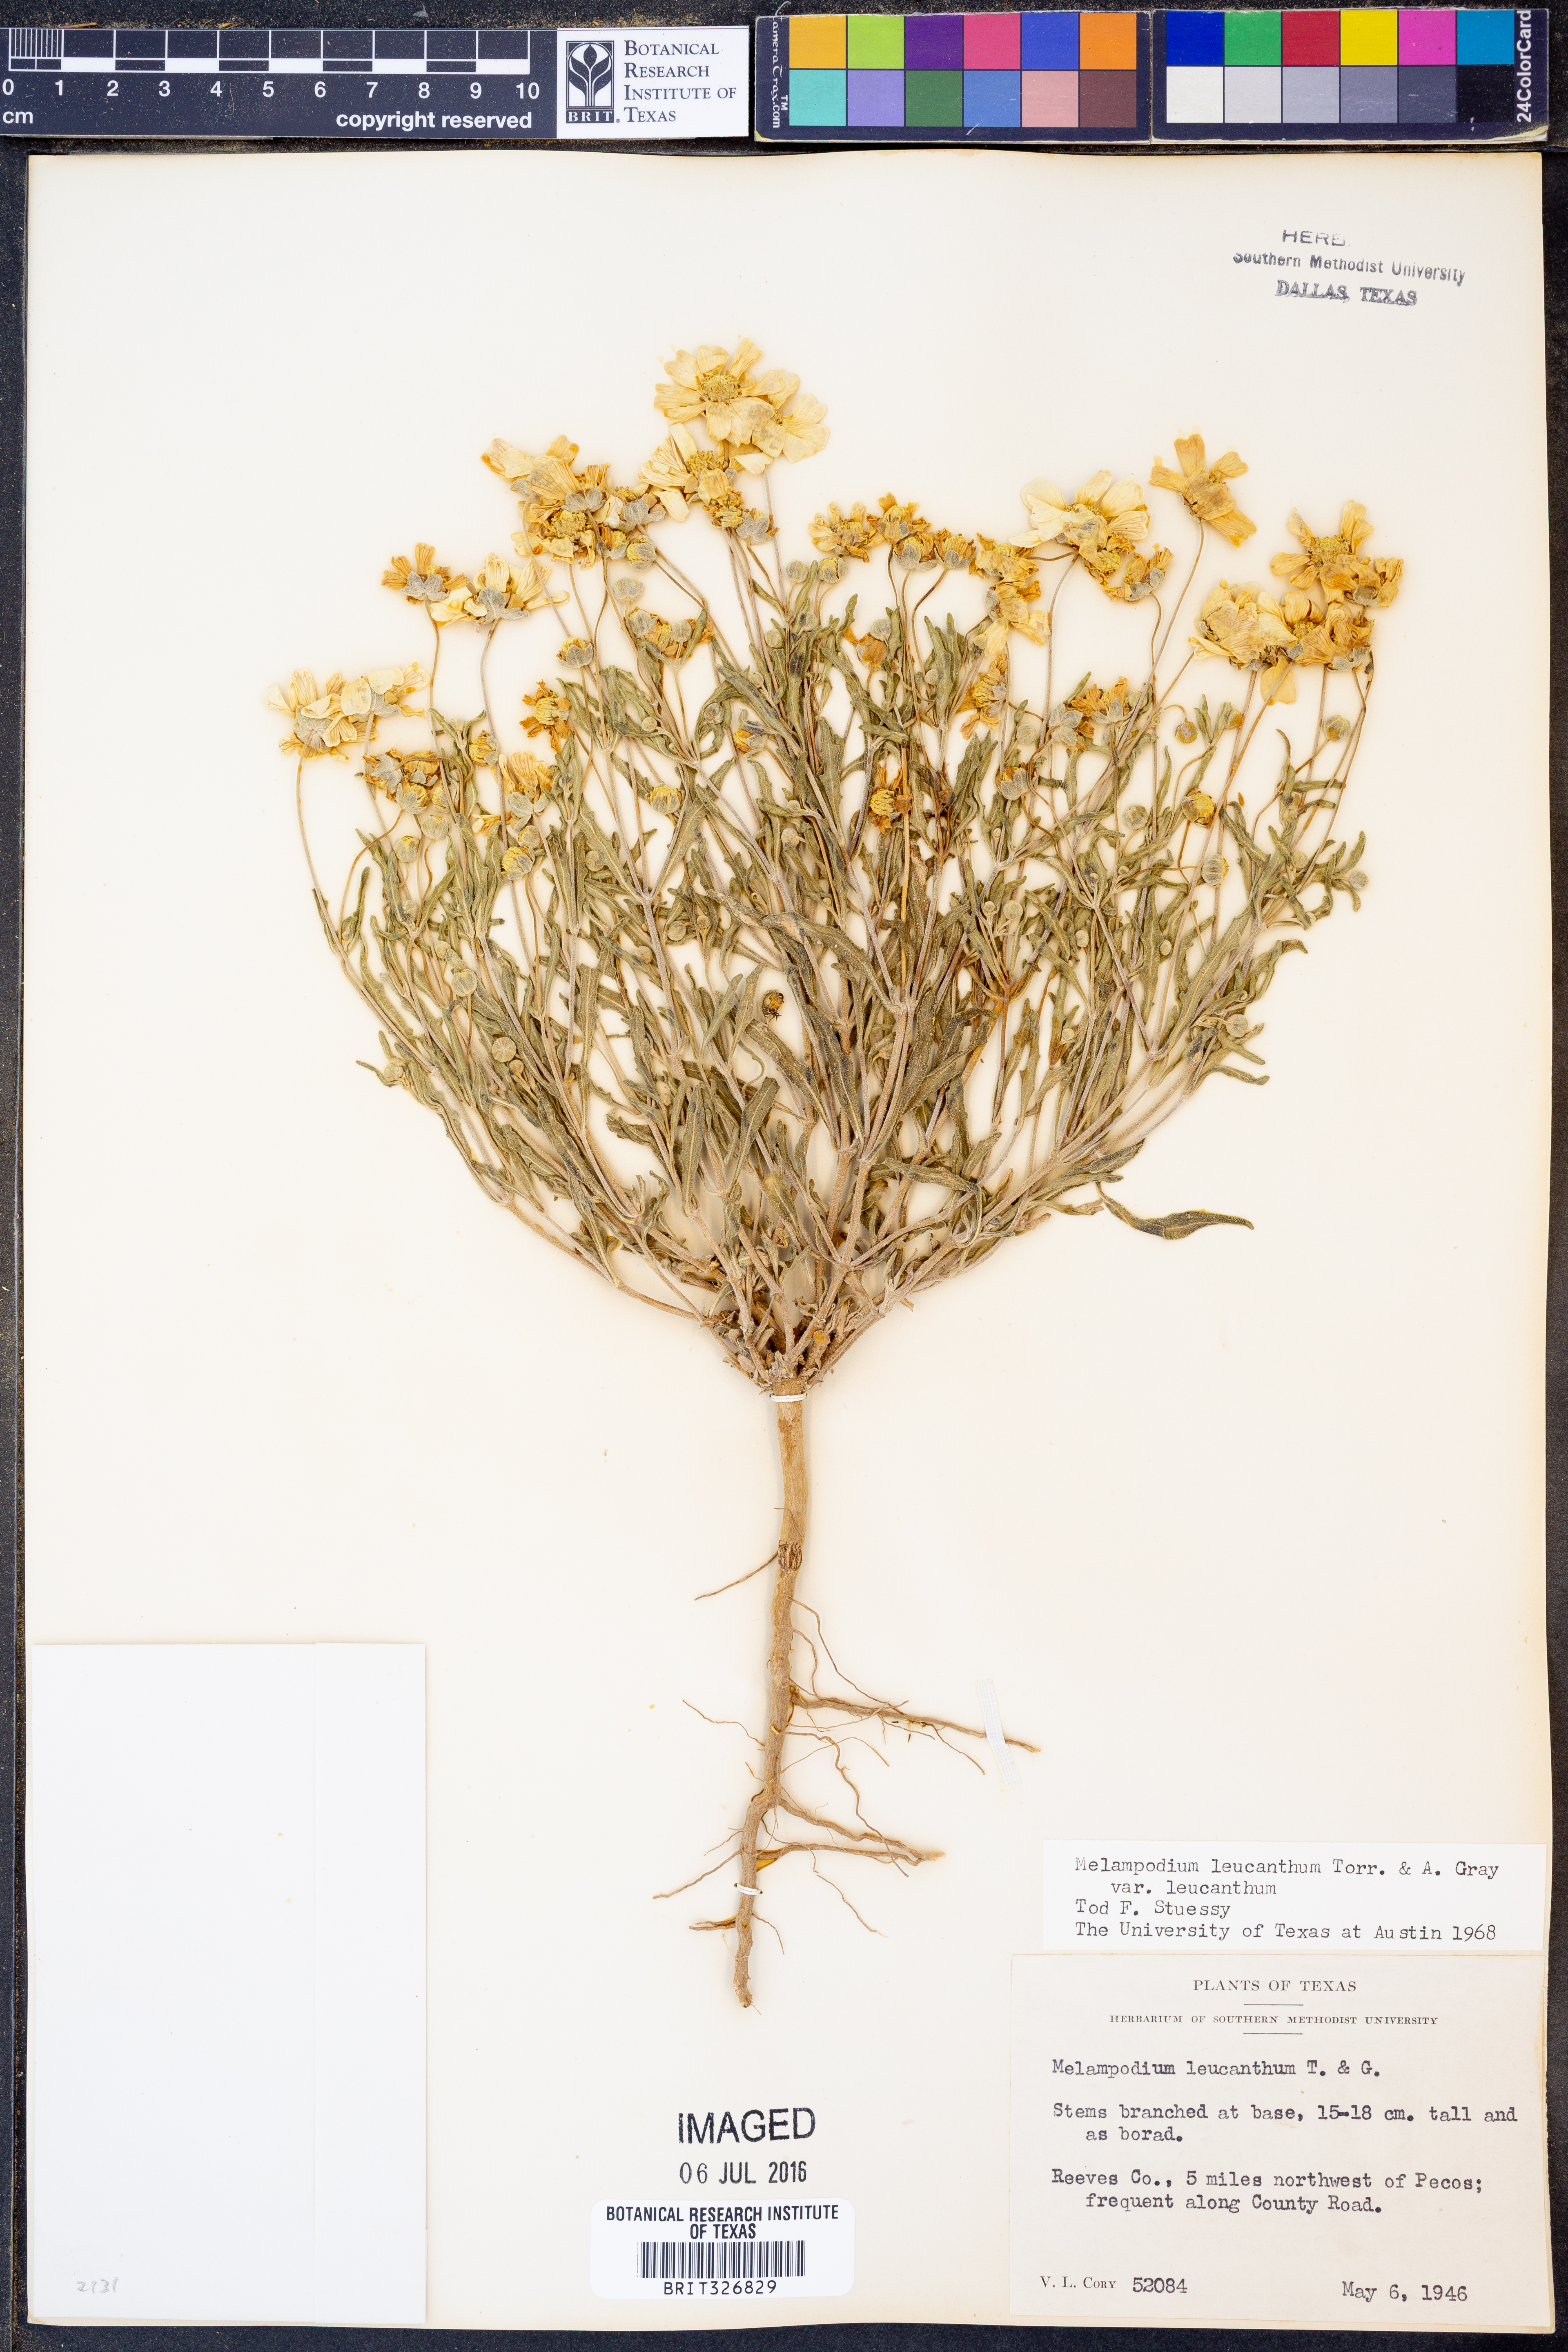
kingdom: Plantae
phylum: Tracheophyta
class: Magnoliopsida
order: Asterales
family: Asteraceae
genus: Melampodium
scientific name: Melampodium leucanthum
